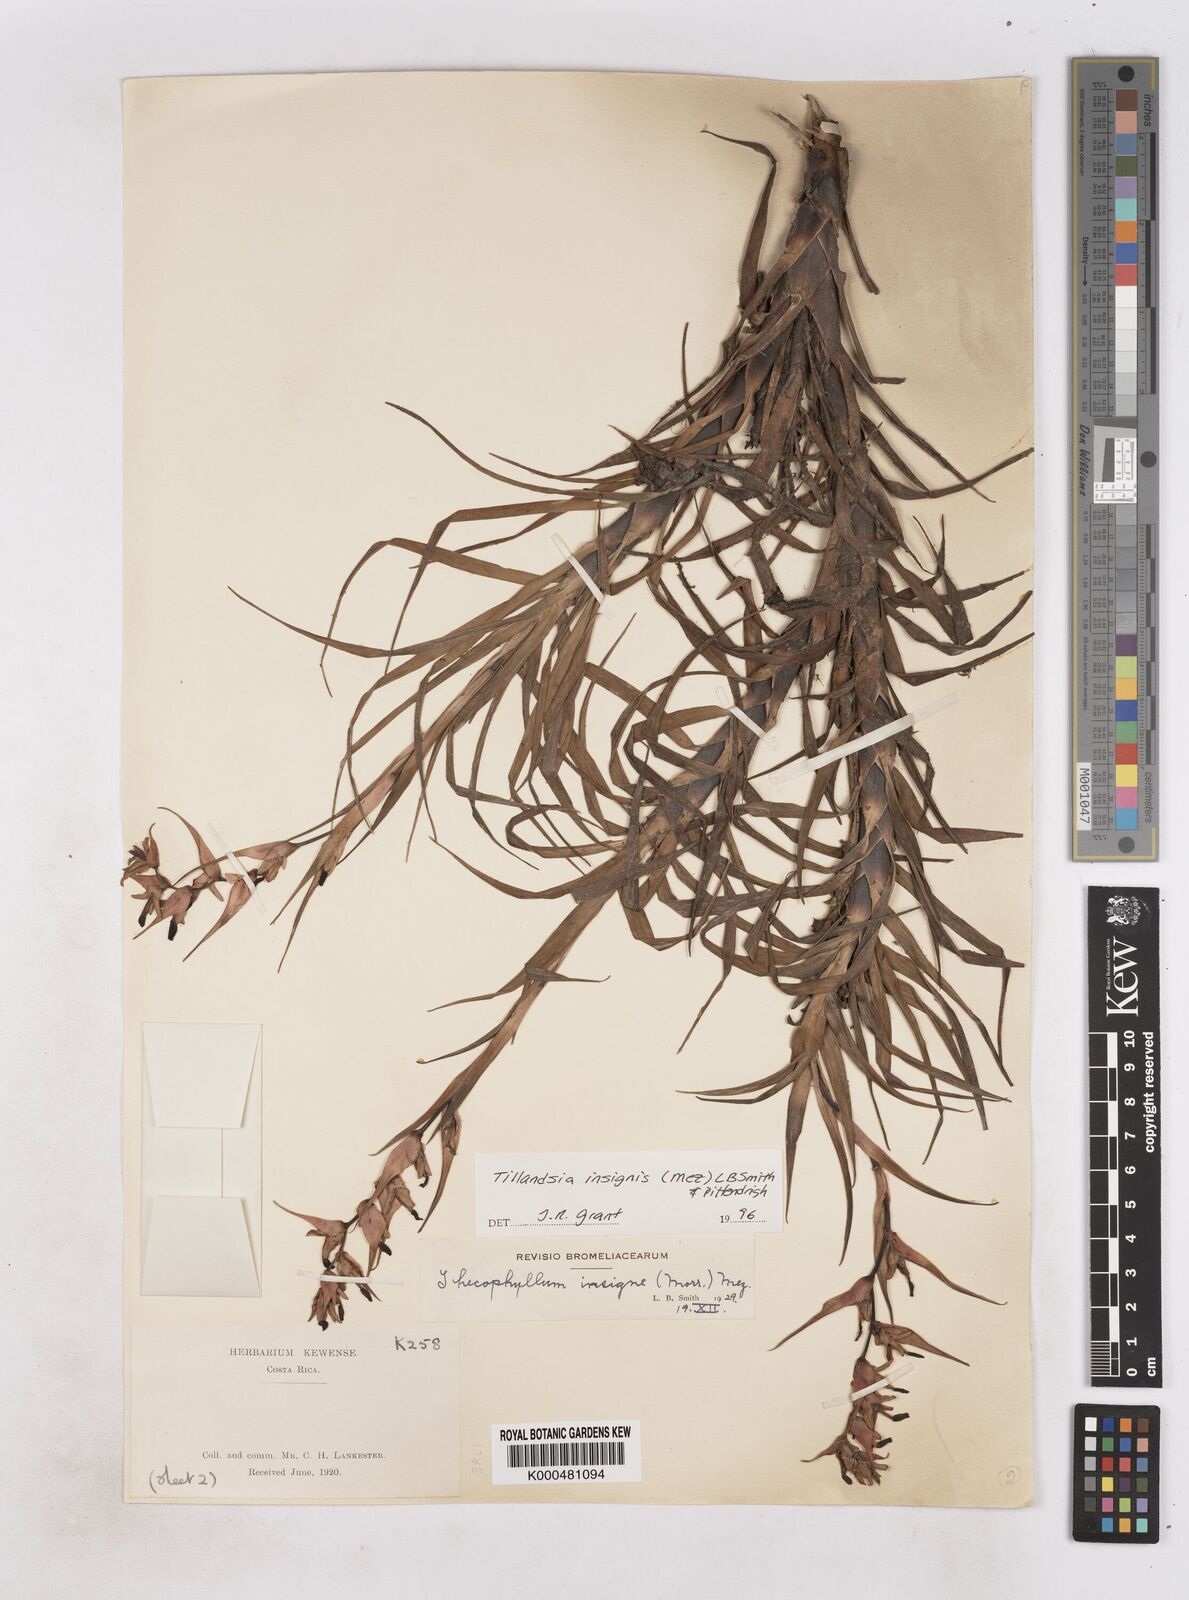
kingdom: Plantae
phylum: Tracheophyta
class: Liliopsida
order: Poales
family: Bromeliaceae
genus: Tillandsia
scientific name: Tillandsia
